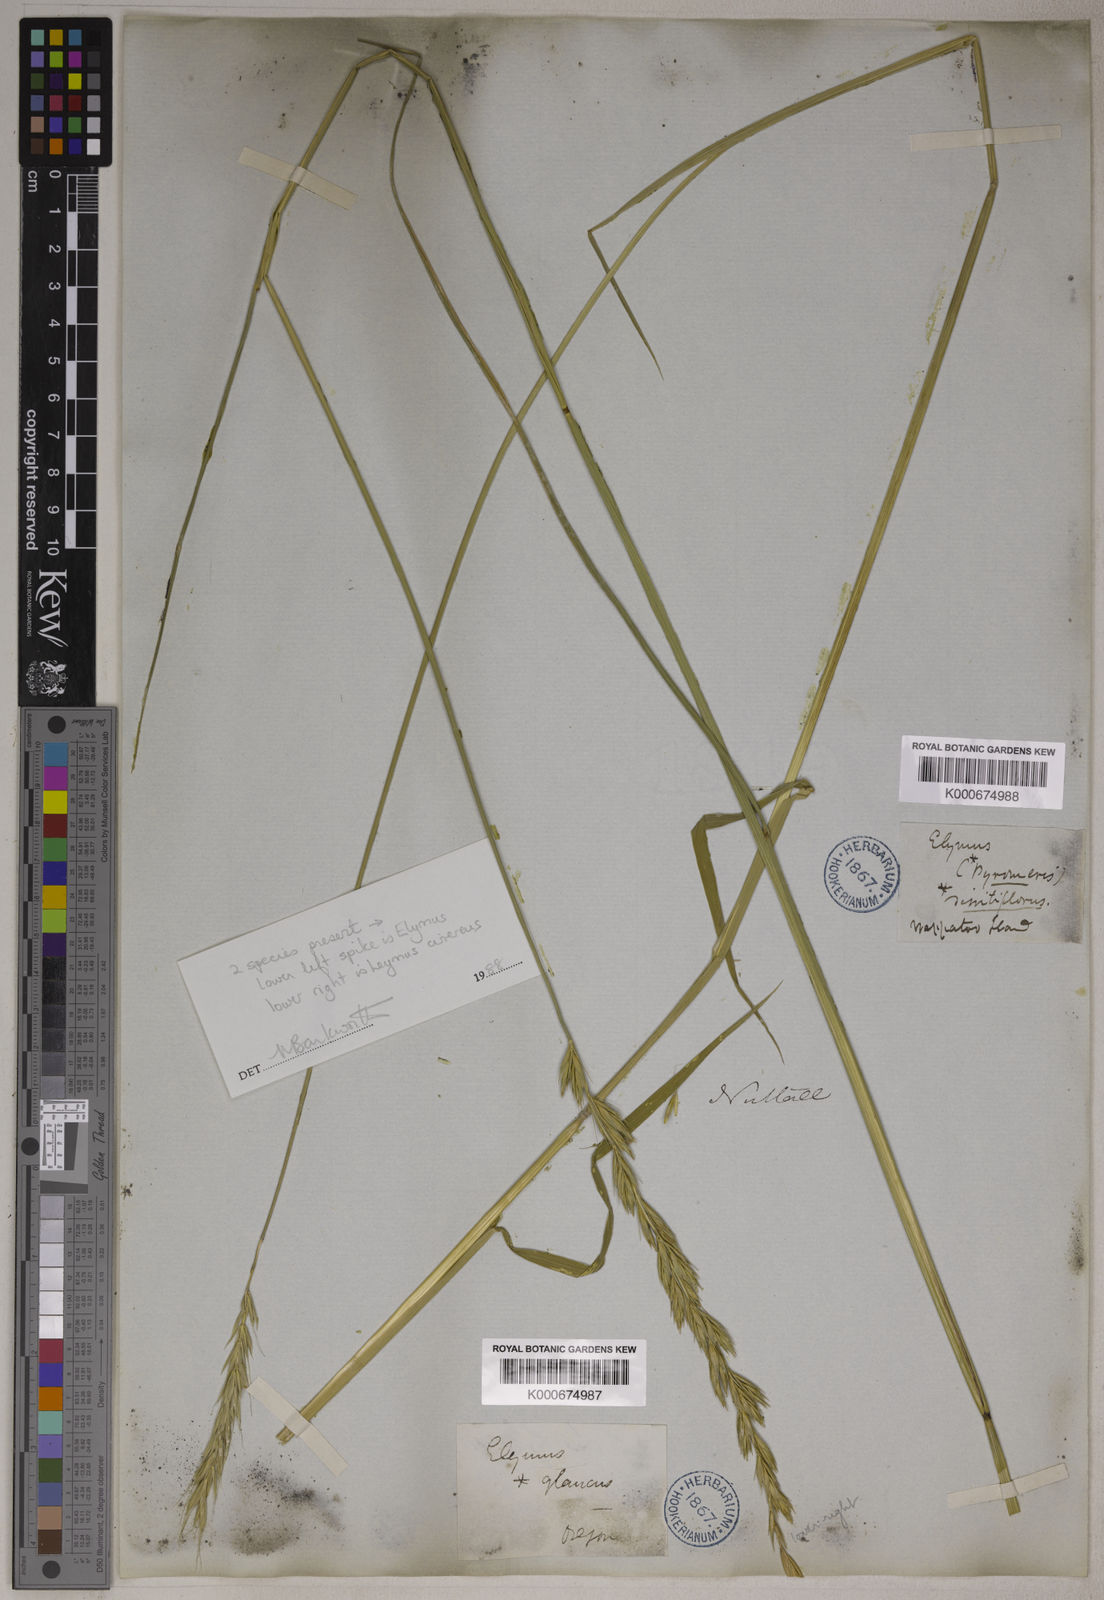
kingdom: Plantae
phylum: Tracheophyta
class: Liliopsida
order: Poales
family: Poaceae
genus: Elymus
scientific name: Elymus glaucus
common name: Blue wild rye
